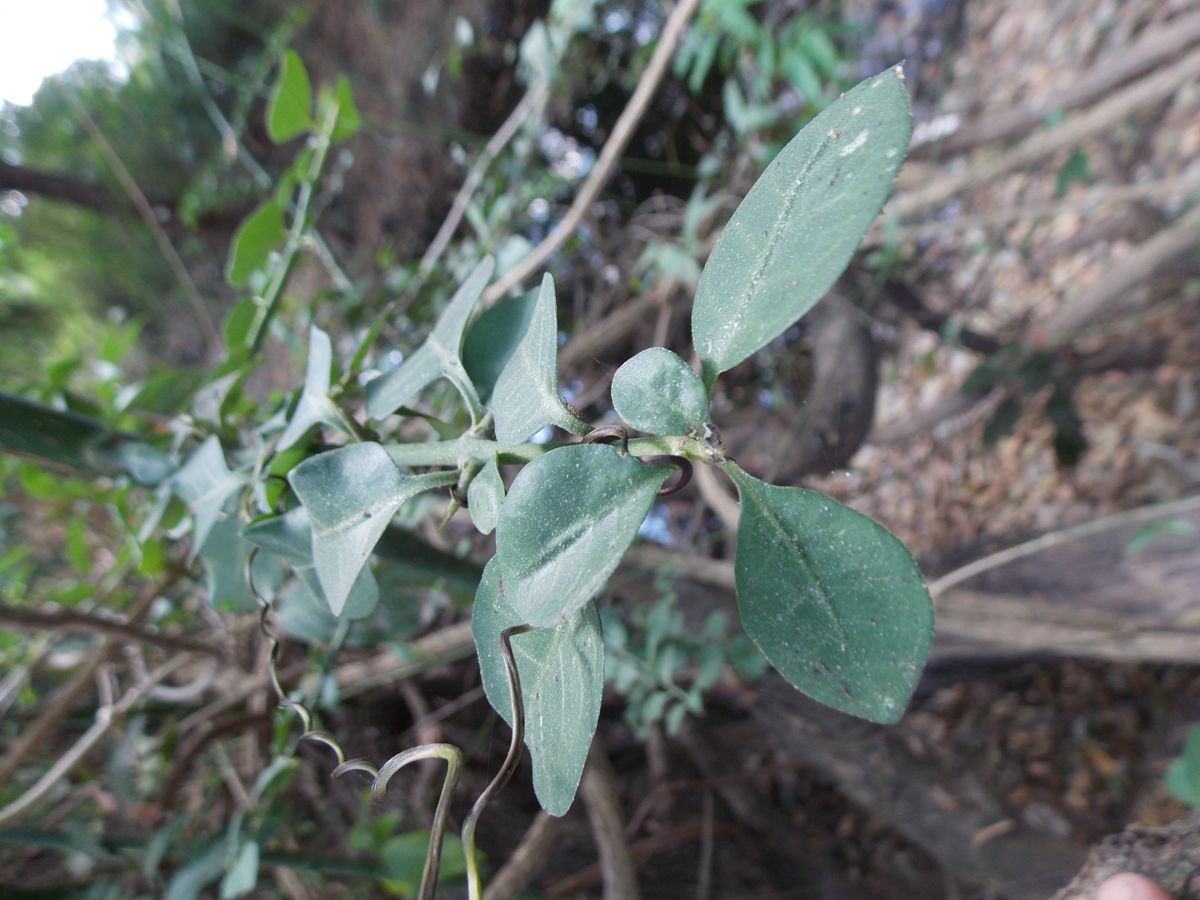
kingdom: Plantae
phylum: Tracheophyta
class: Magnoliopsida
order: Caryophyllales
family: Nyctaginaceae
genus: Pisonia
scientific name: Pisonia aculeata
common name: Cockspur vine
